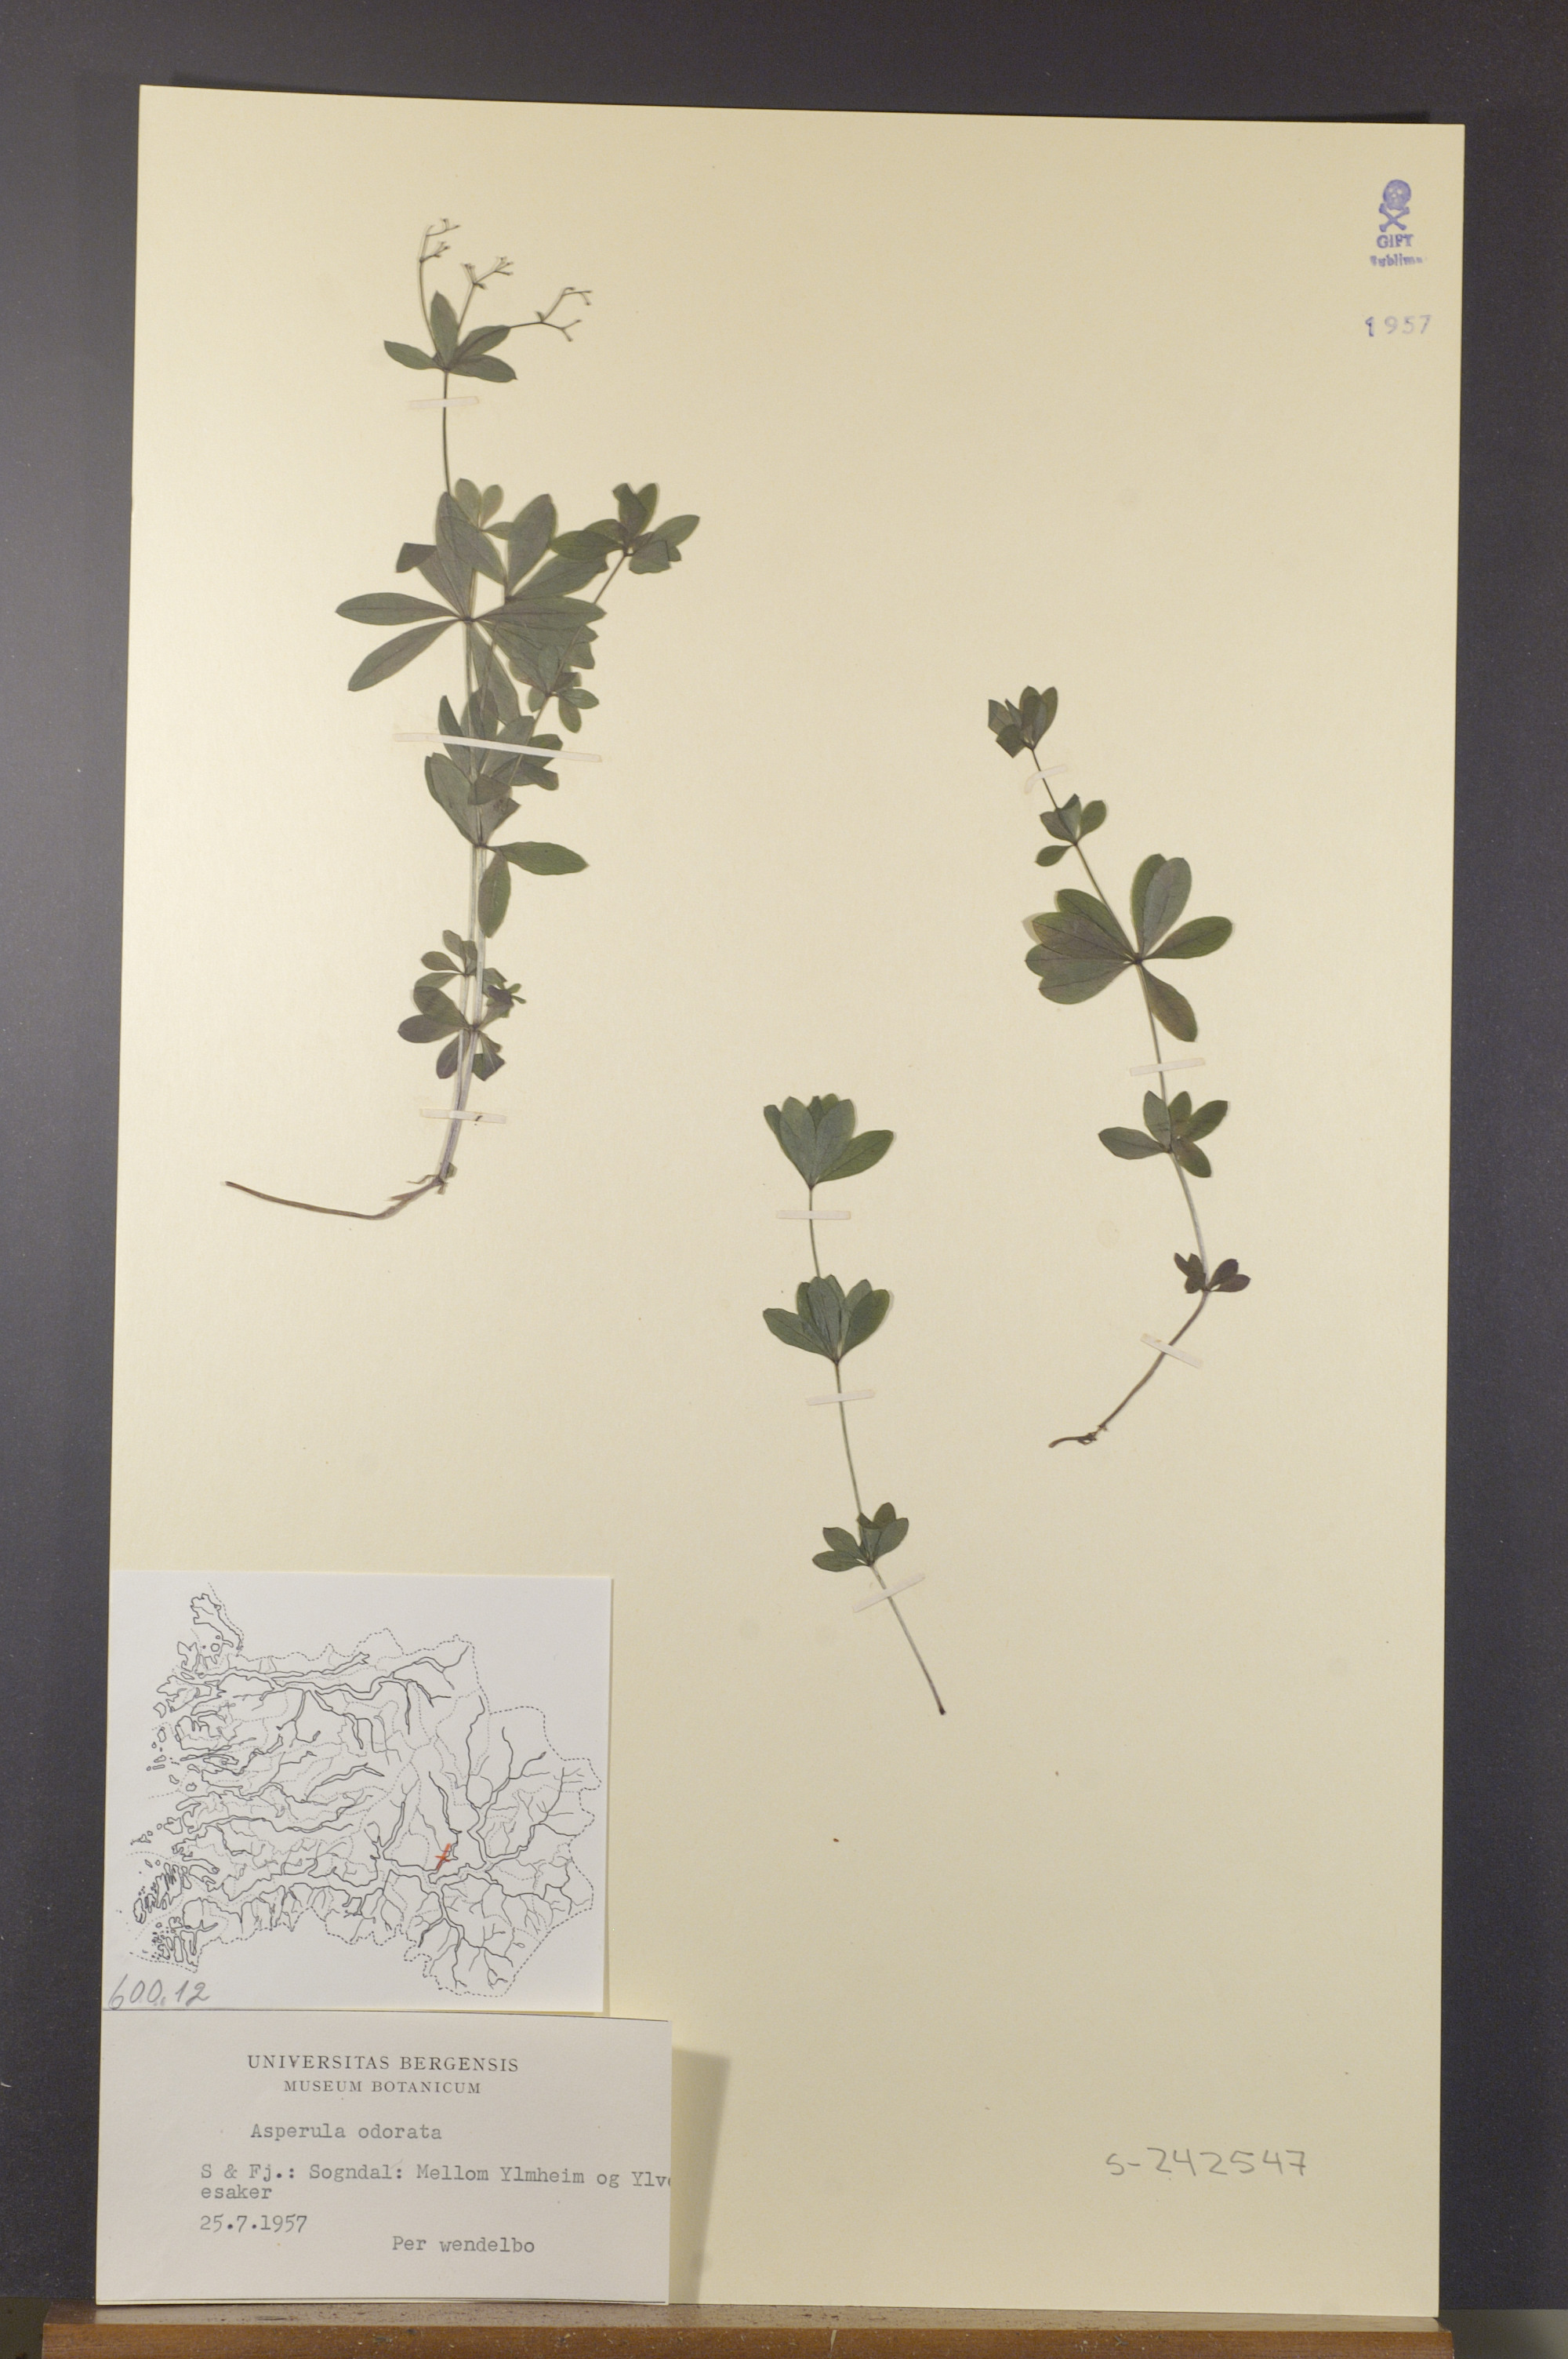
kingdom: Plantae
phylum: Tracheophyta
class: Magnoliopsida
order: Gentianales
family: Rubiaceae
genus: Galium
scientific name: Galium odoratum
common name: Sweet woodruff
